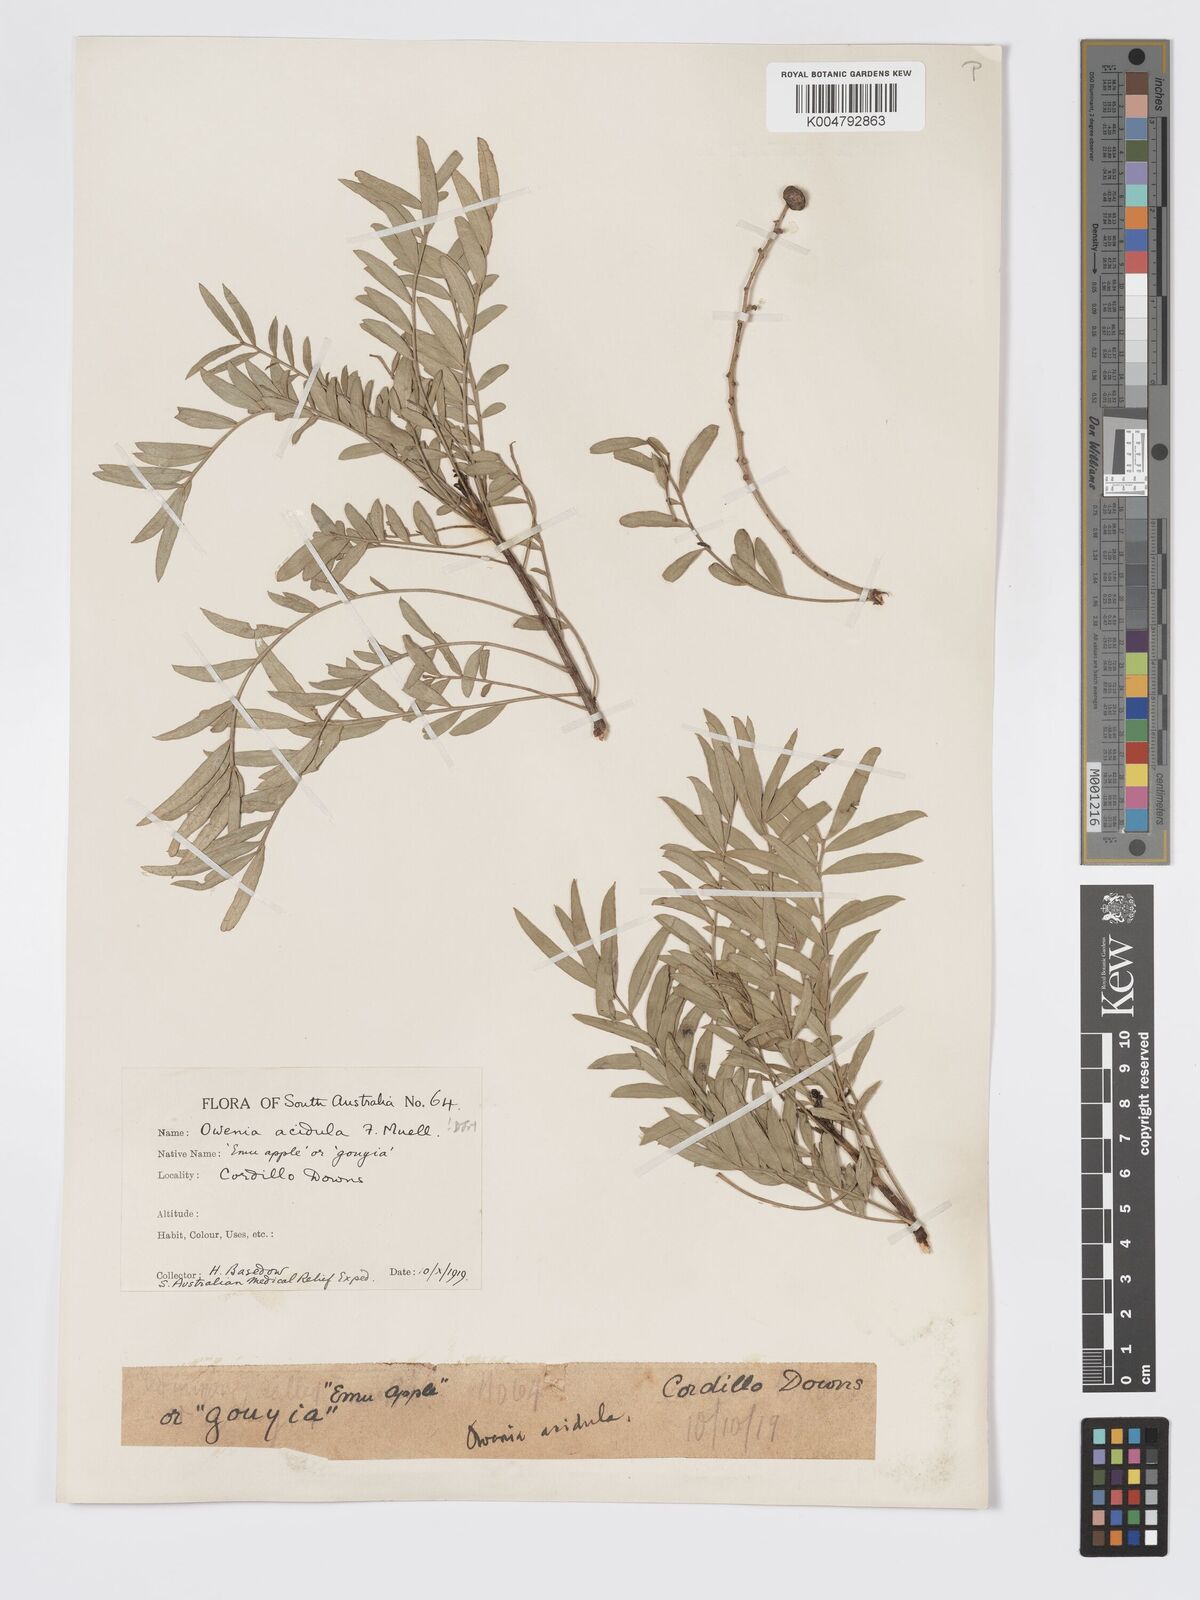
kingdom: Plantae
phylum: Tracheophyta
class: Magnoliopsida
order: Sapindales
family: Meliaceae
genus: Owenia
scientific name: Owenia acidula
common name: Tulipwood
